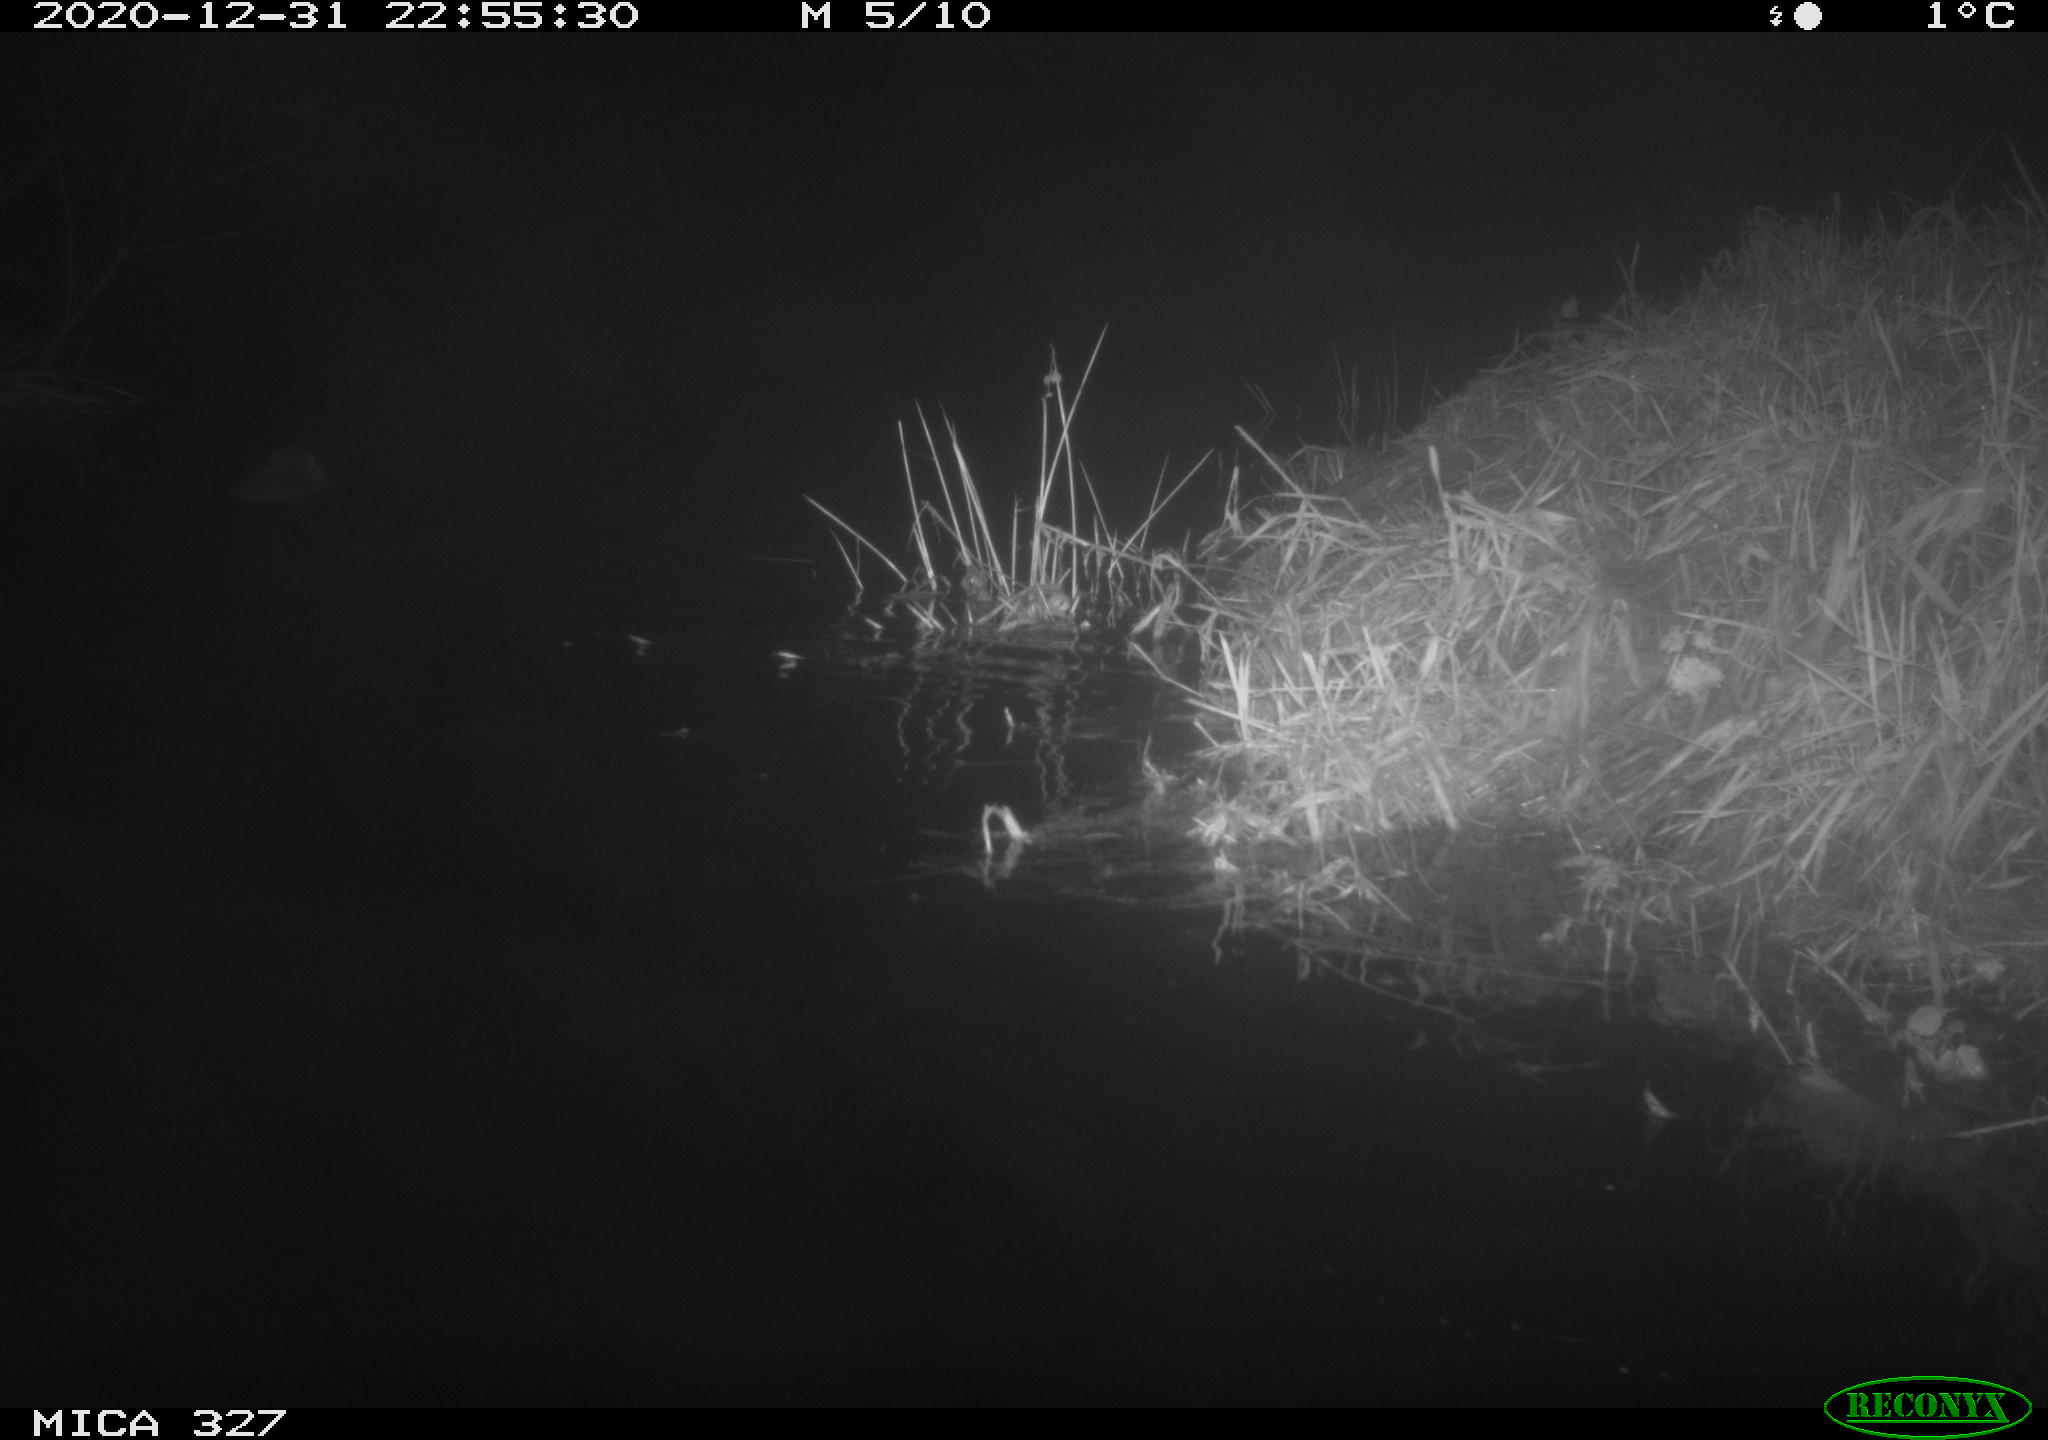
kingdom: Animalia
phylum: Chordata
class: Mammalia
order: Rodentia
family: Myocastoridae
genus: Myocastor
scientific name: Myocastor coypus
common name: Coypu
